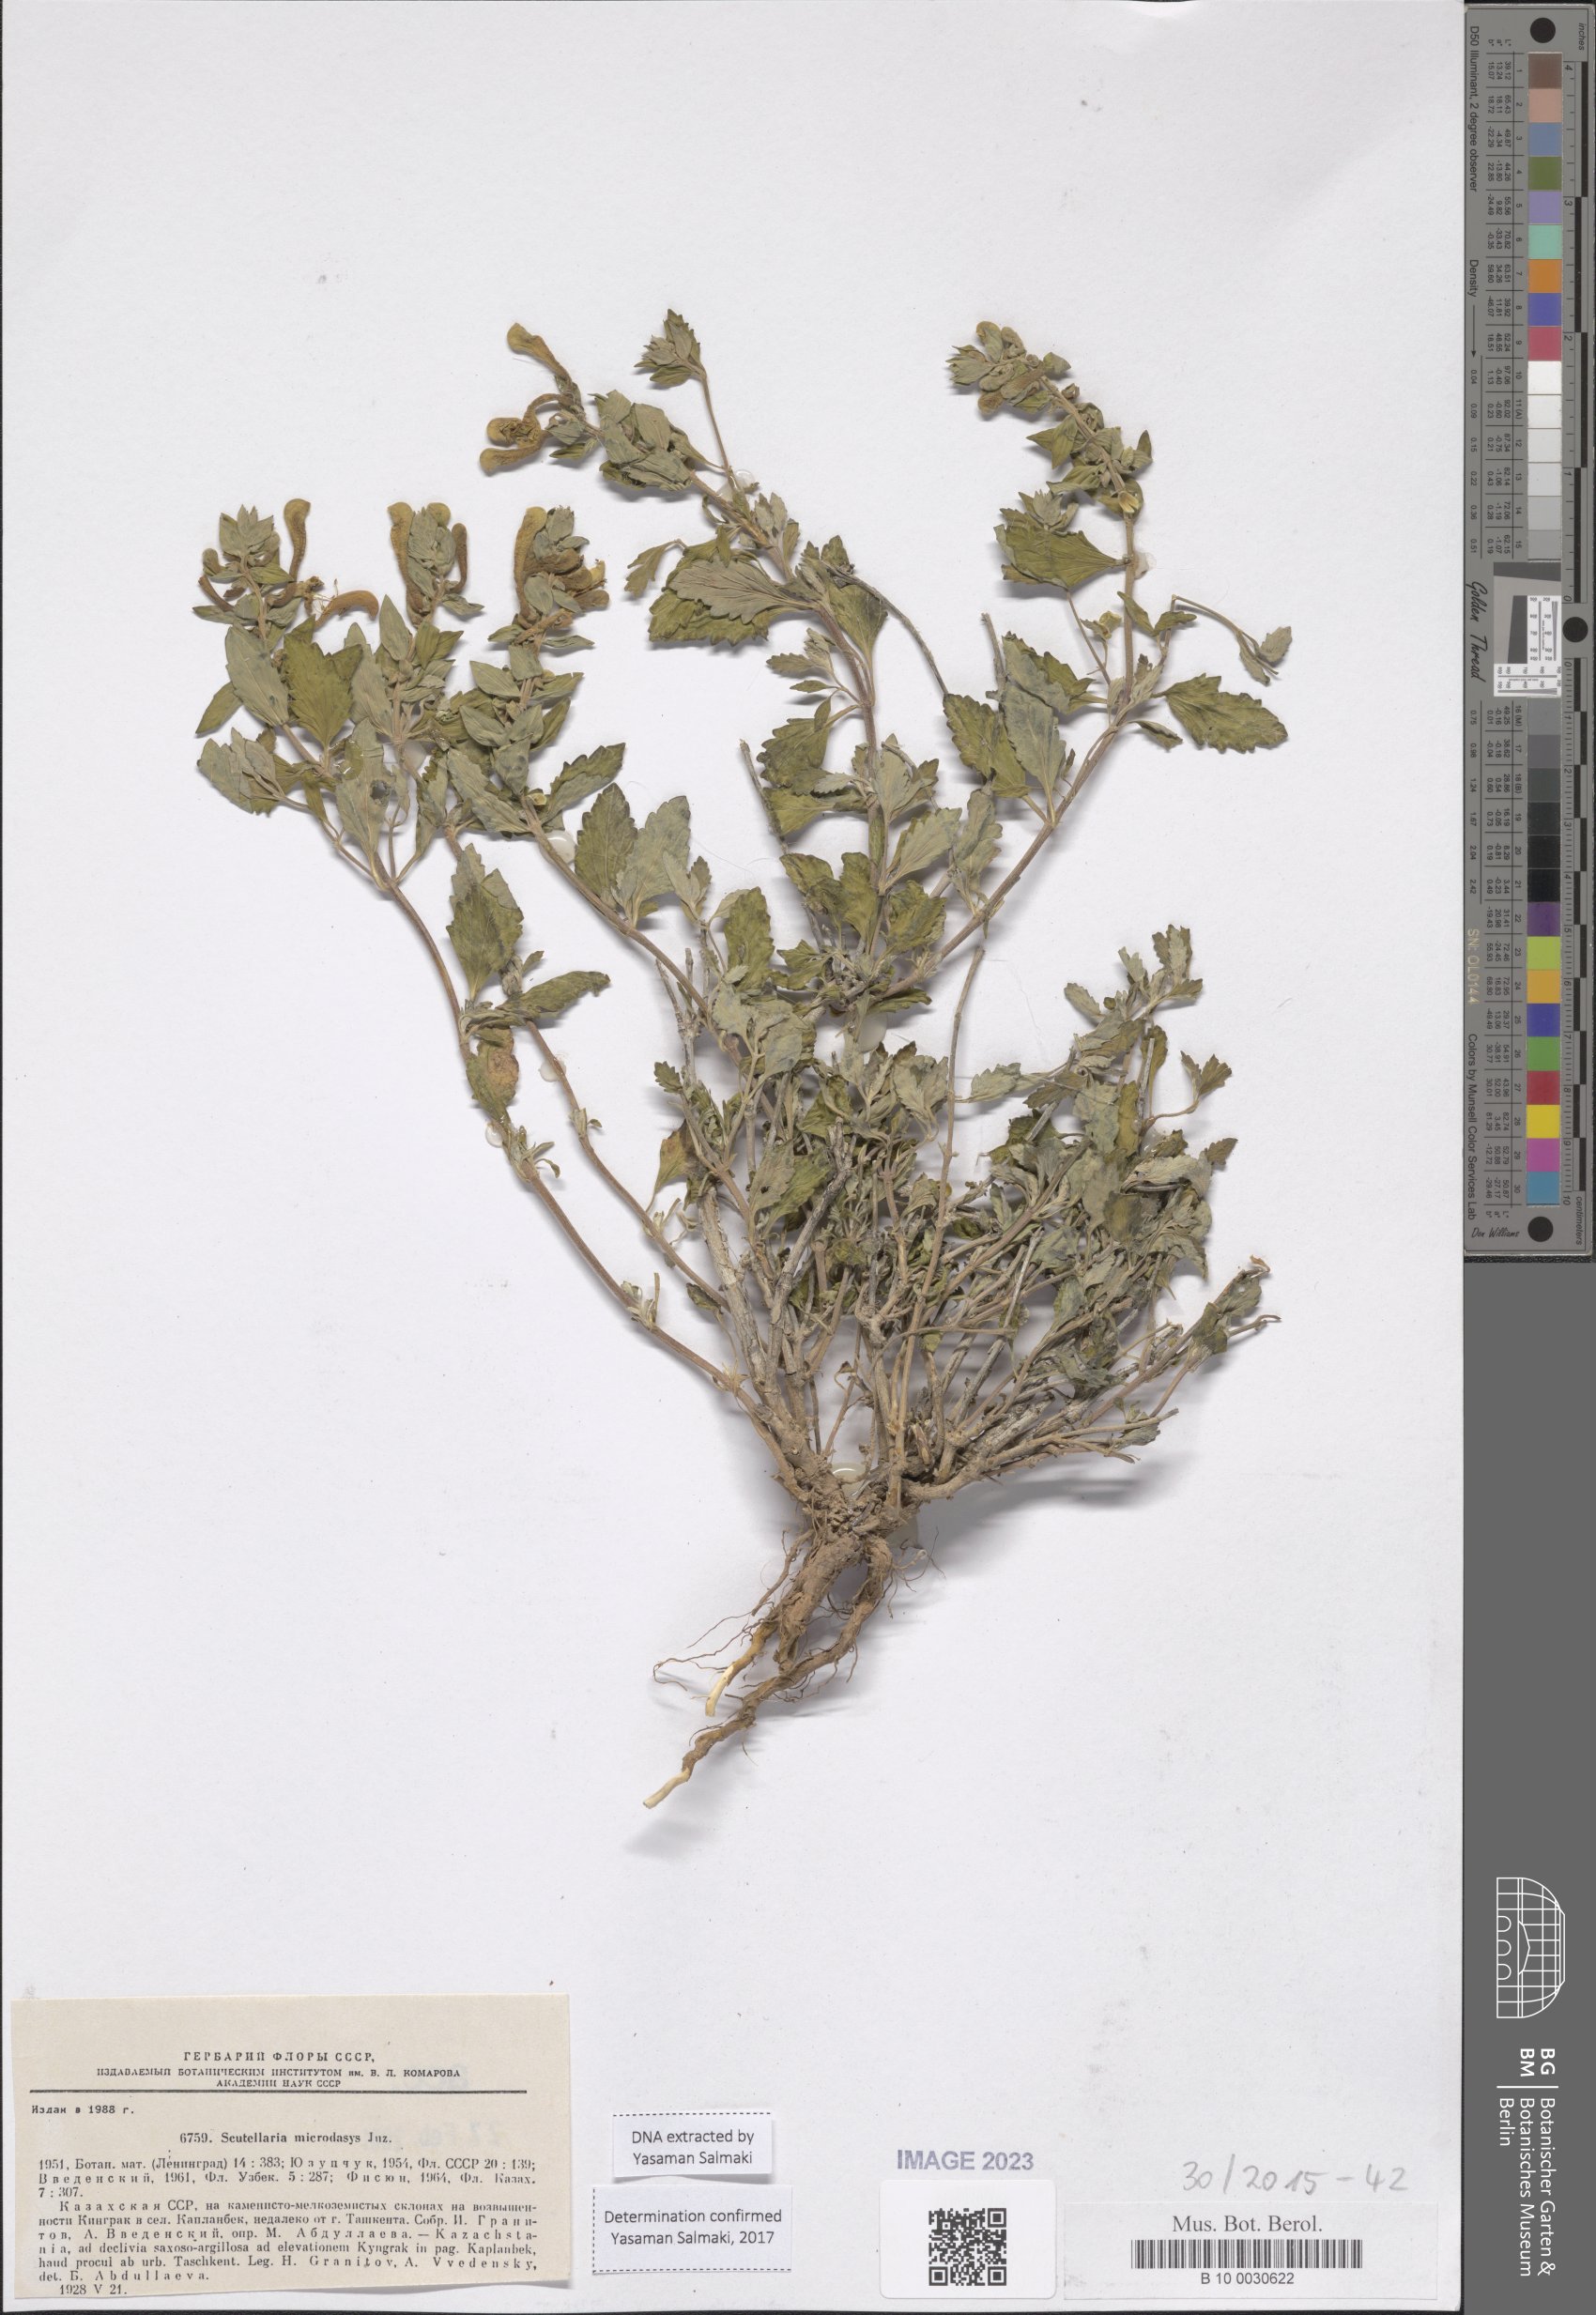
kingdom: Plantae
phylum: Tracheophyta
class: Magnoliopsida
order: Lamiales
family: Lamiaceae
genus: Scutellaria
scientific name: Scutellaria microdasys
